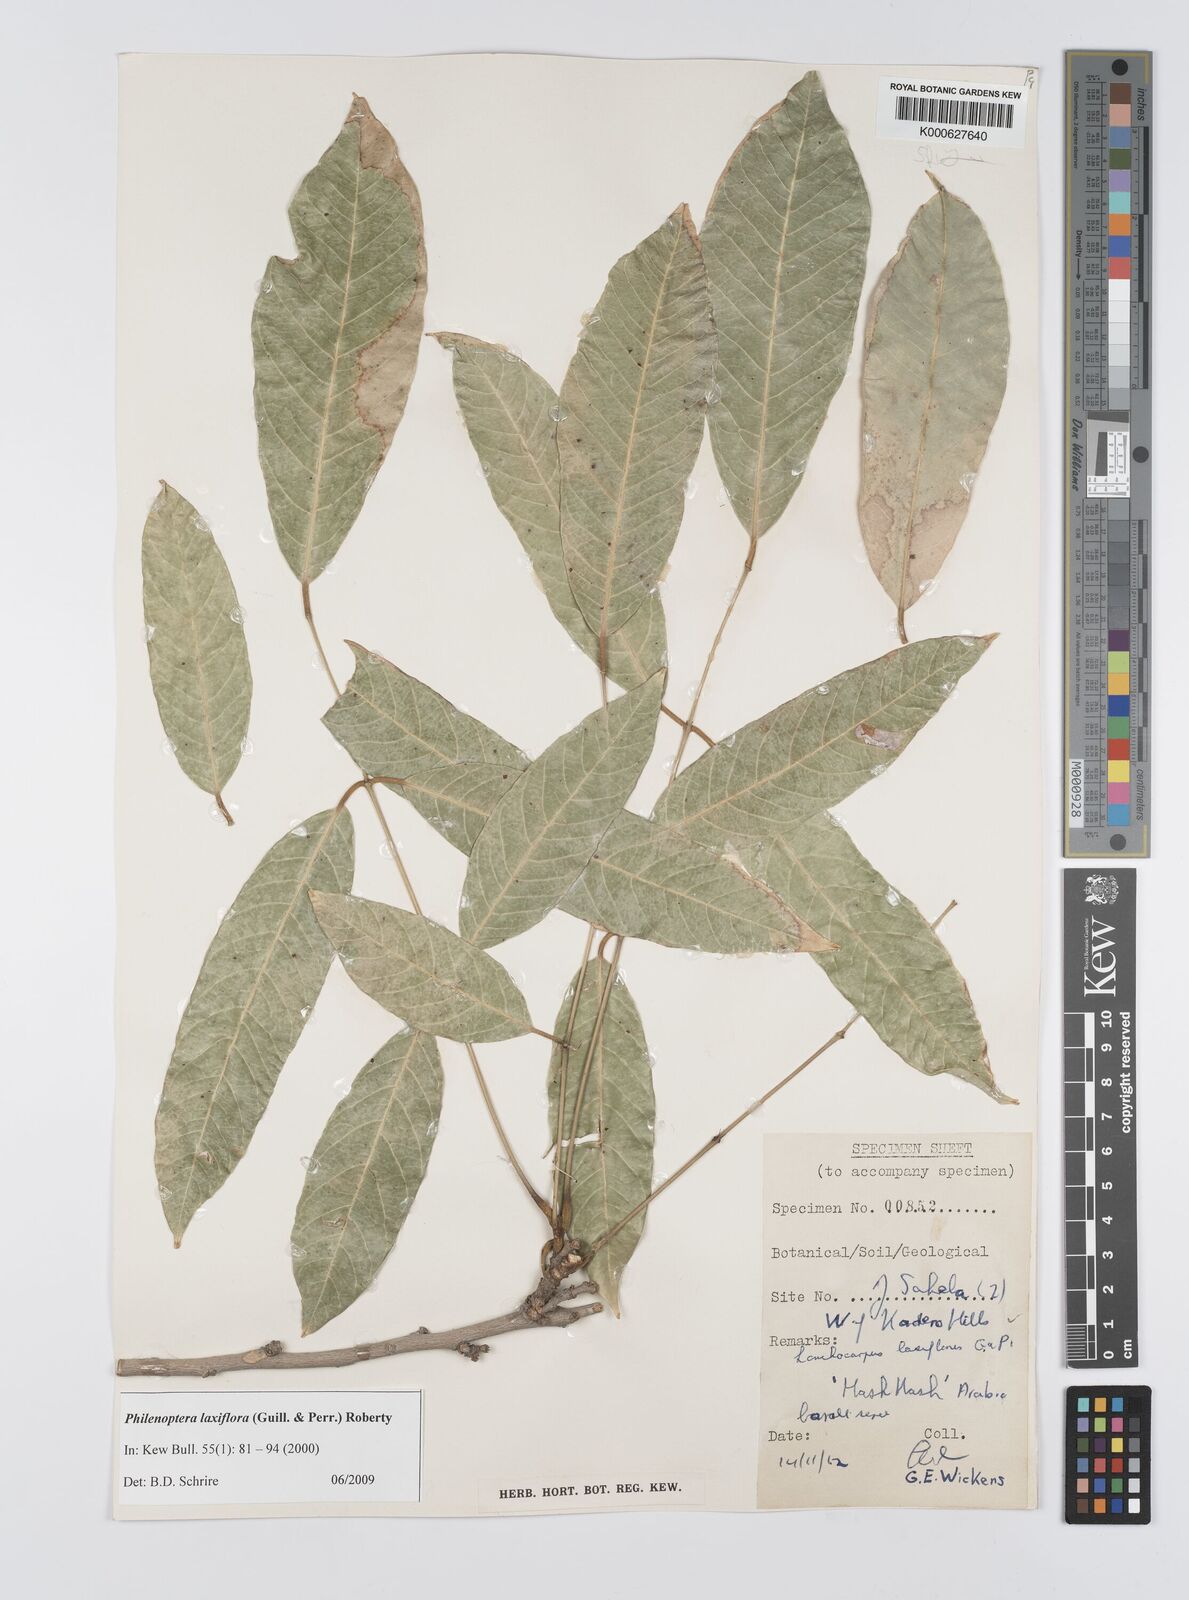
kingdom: Plantae
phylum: Tracheophyta
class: Magnoliopsida
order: Fabales
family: Fabaceae
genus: Philenoptera
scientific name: Philenoptera laxiflora
